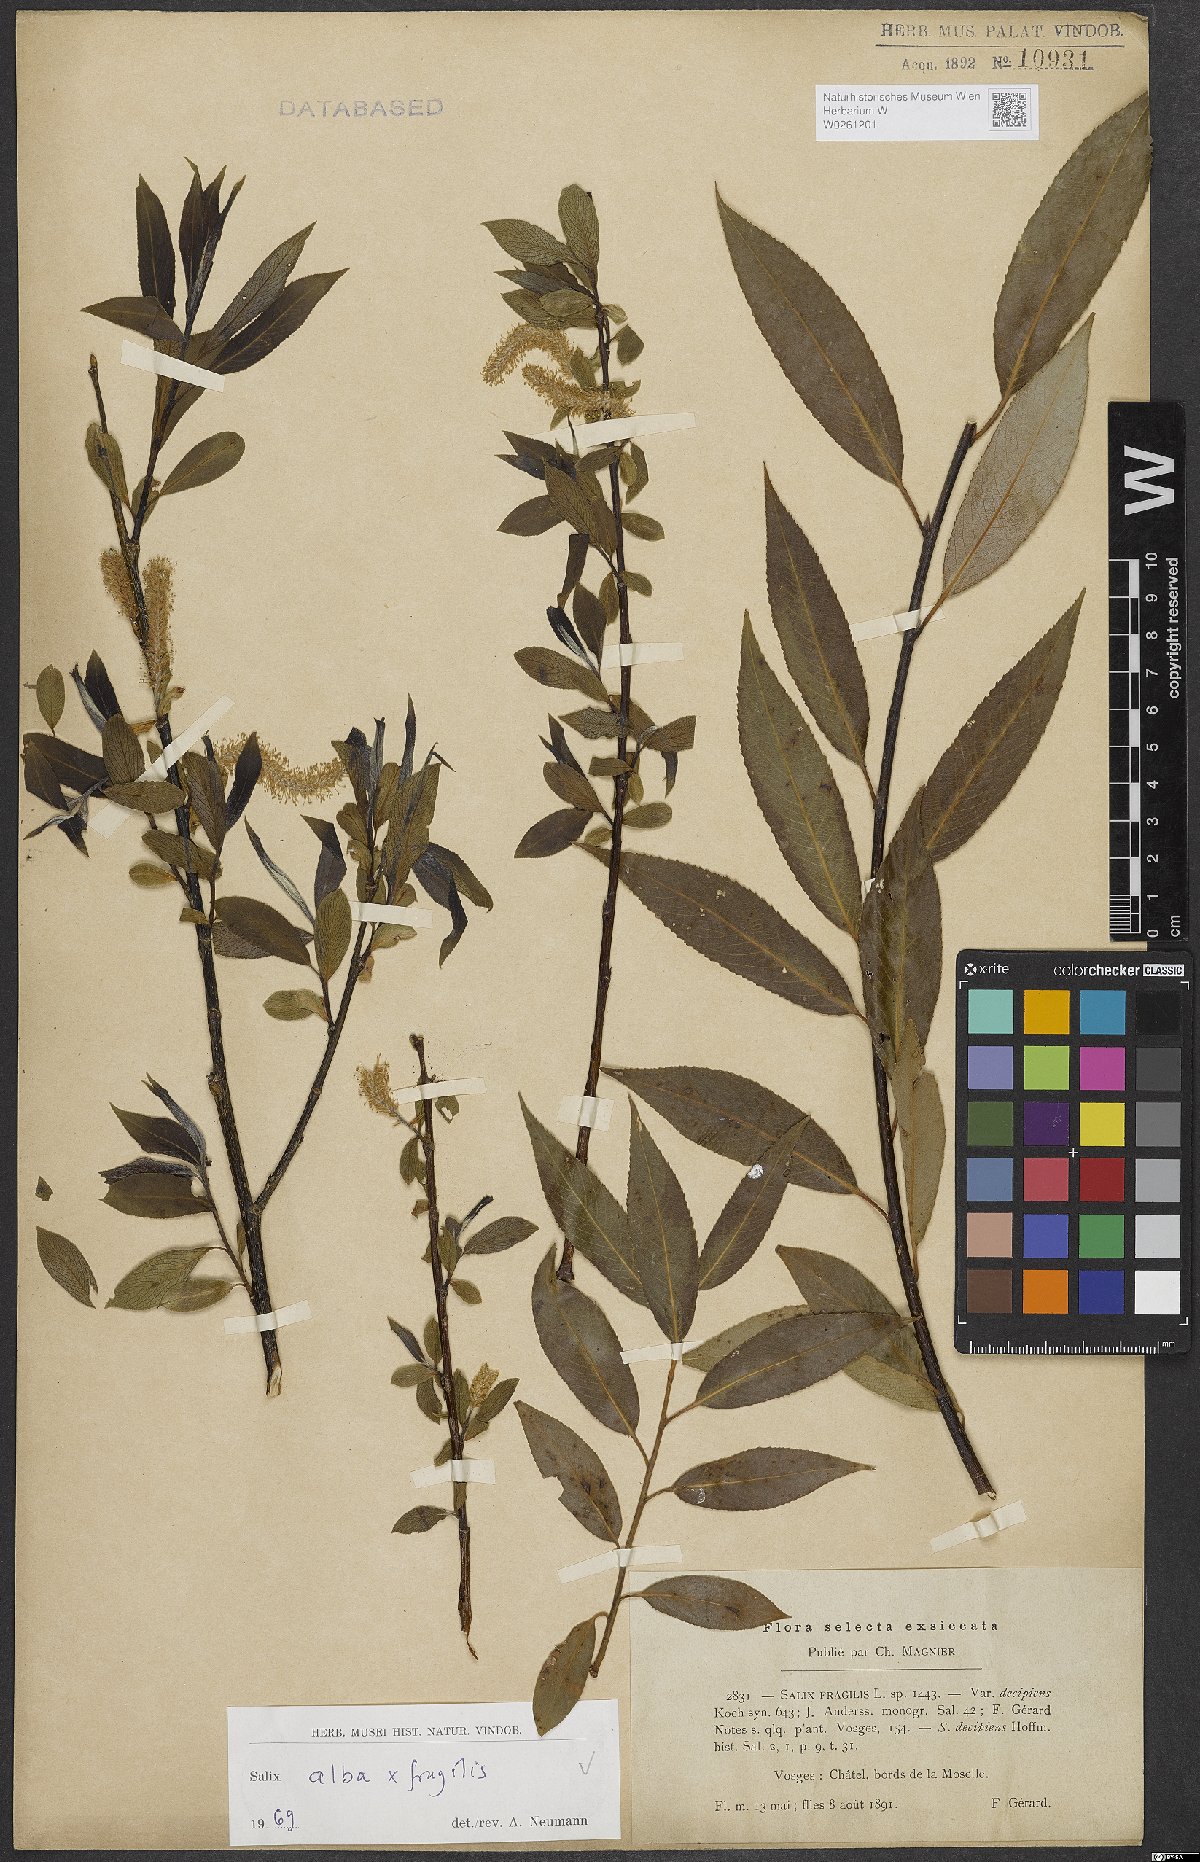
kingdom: Plantae
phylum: Tracheophyta
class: Magnoliopsida
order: Malpighiales
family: Salicaceae
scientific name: Salicaceae
